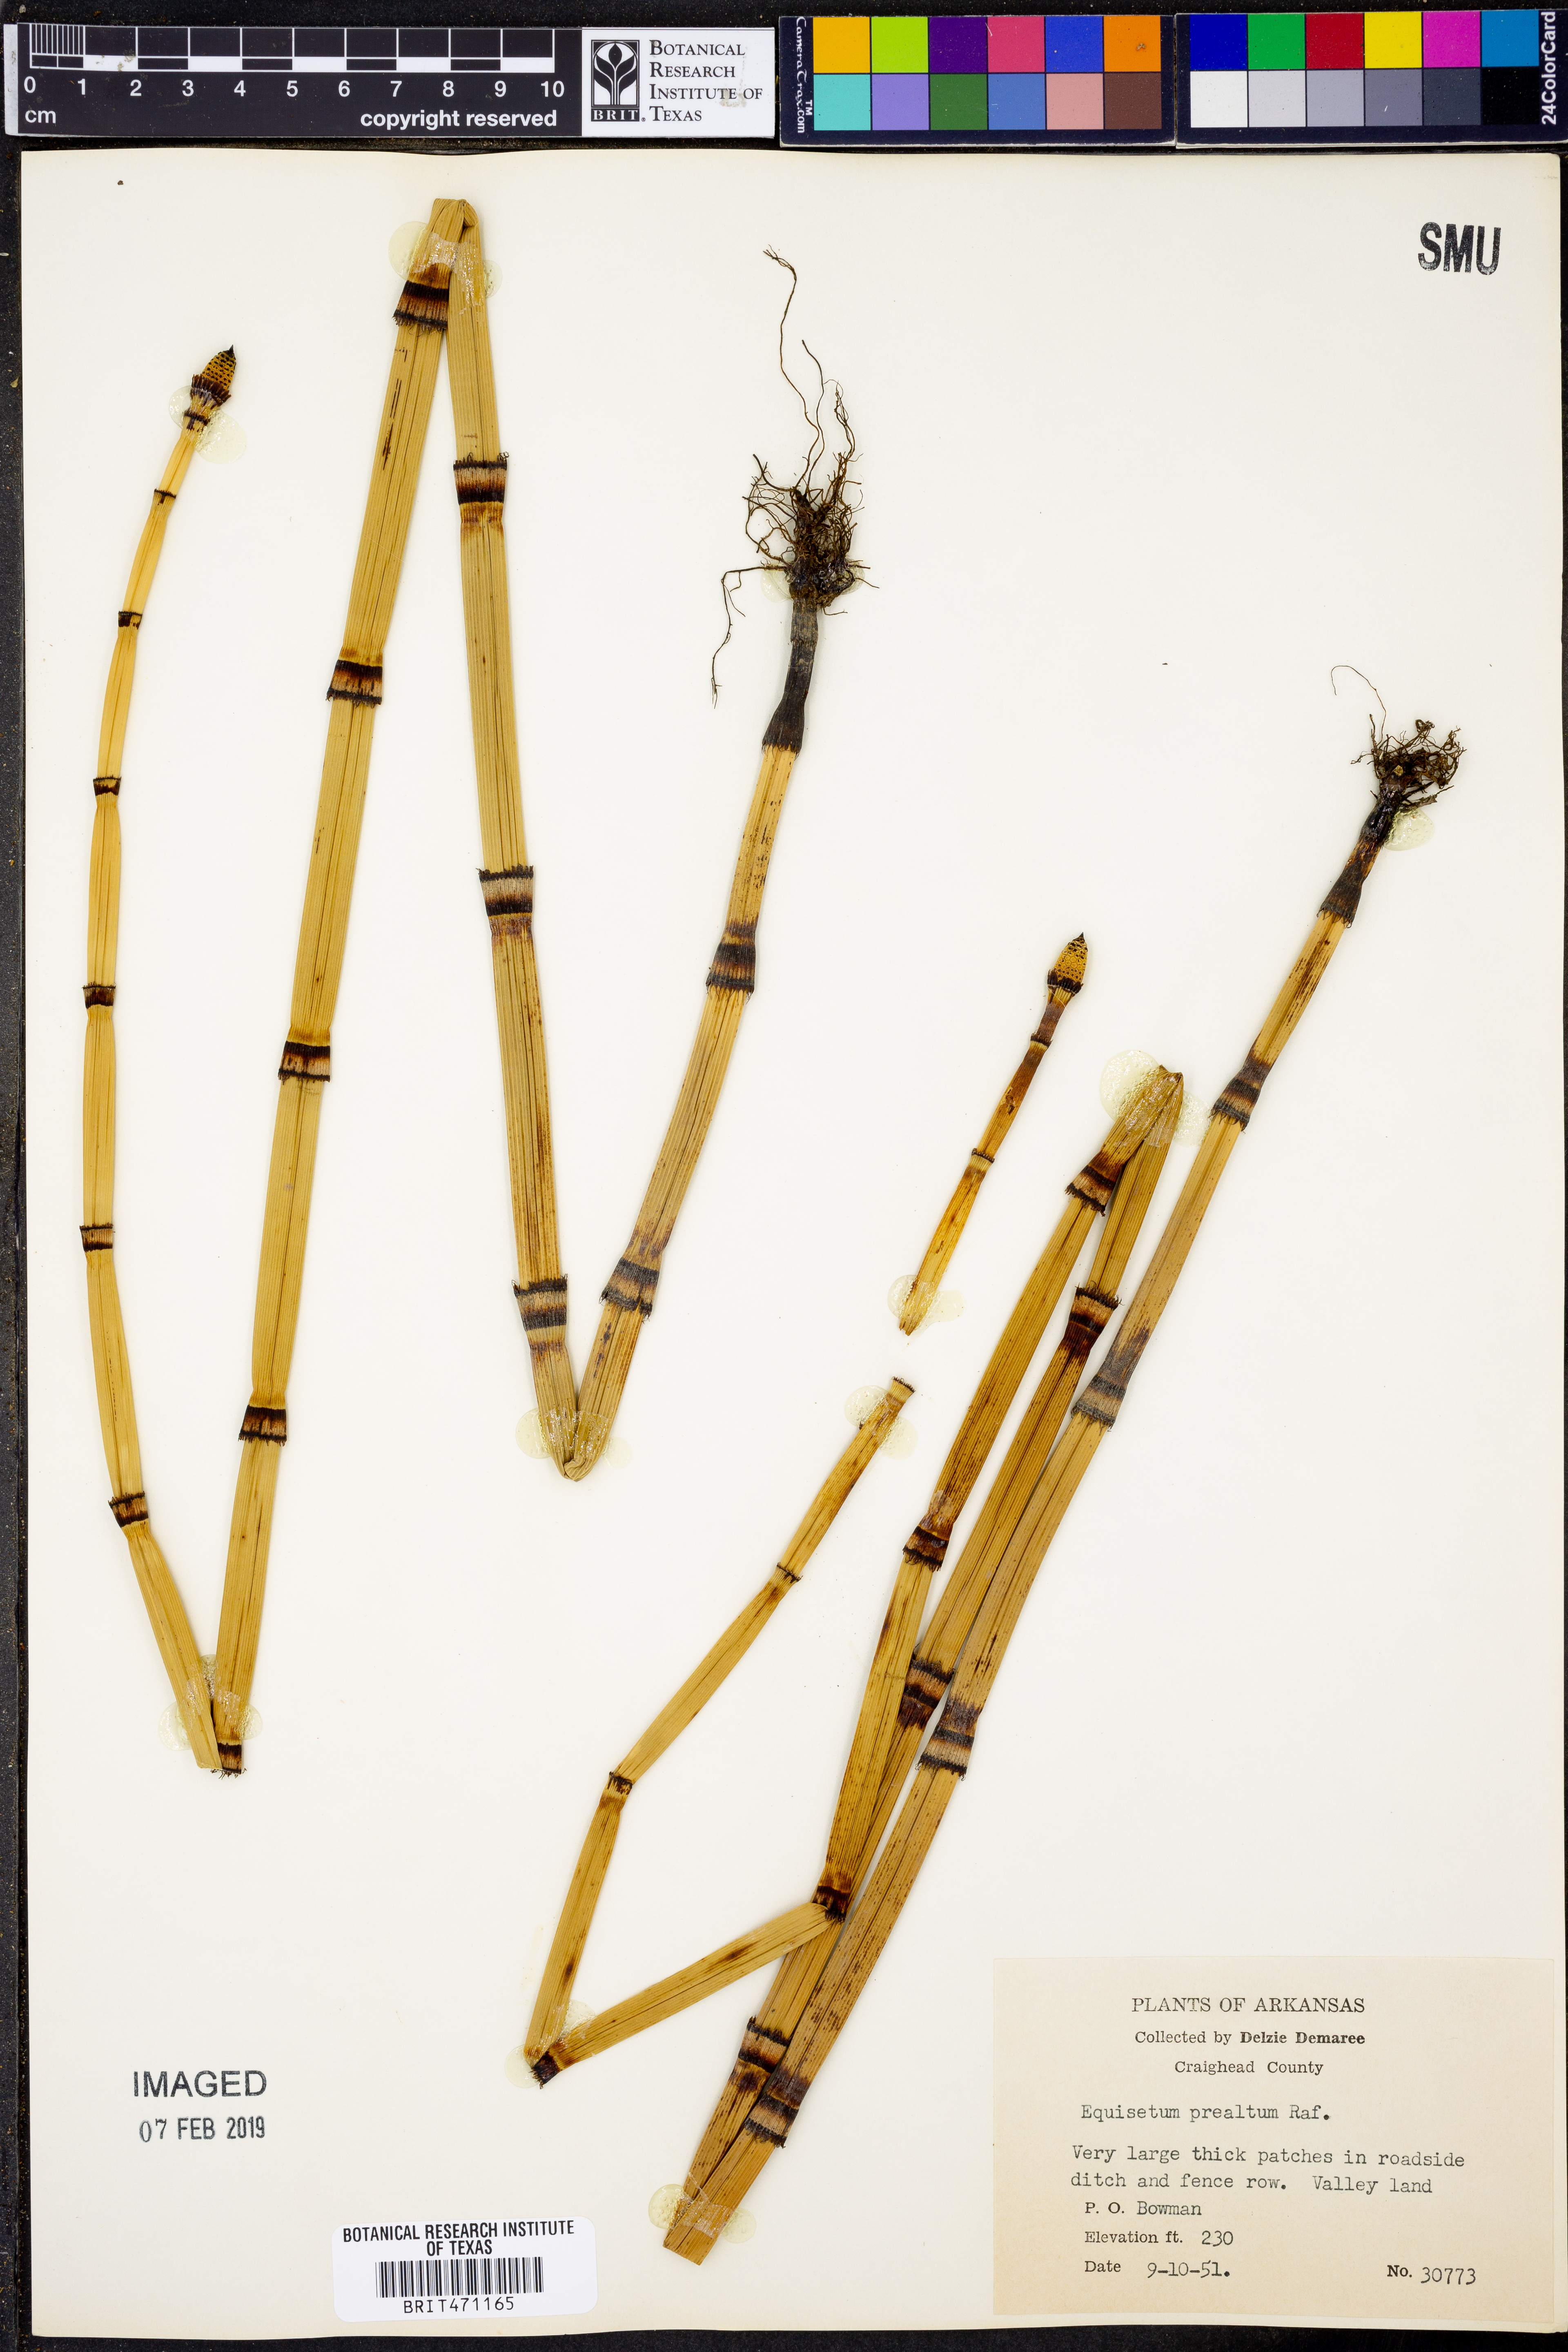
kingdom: Plantae
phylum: Tracheophyta
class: Polypodiopsida
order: Equisetales
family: Equisetaceae
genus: Equisetum
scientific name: Equisetum praealtum
